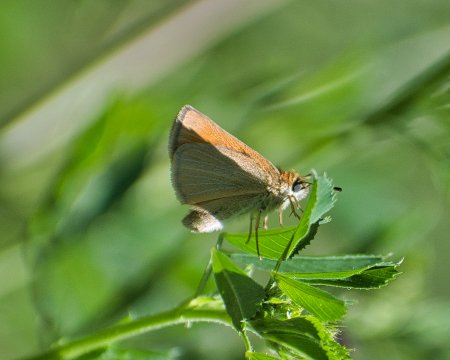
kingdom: Animalia
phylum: Arthropoda
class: Insecta
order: Lepidoptera
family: Hesperiidae
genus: Thymelicus
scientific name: Thymelicus lineola
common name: European Skipper
